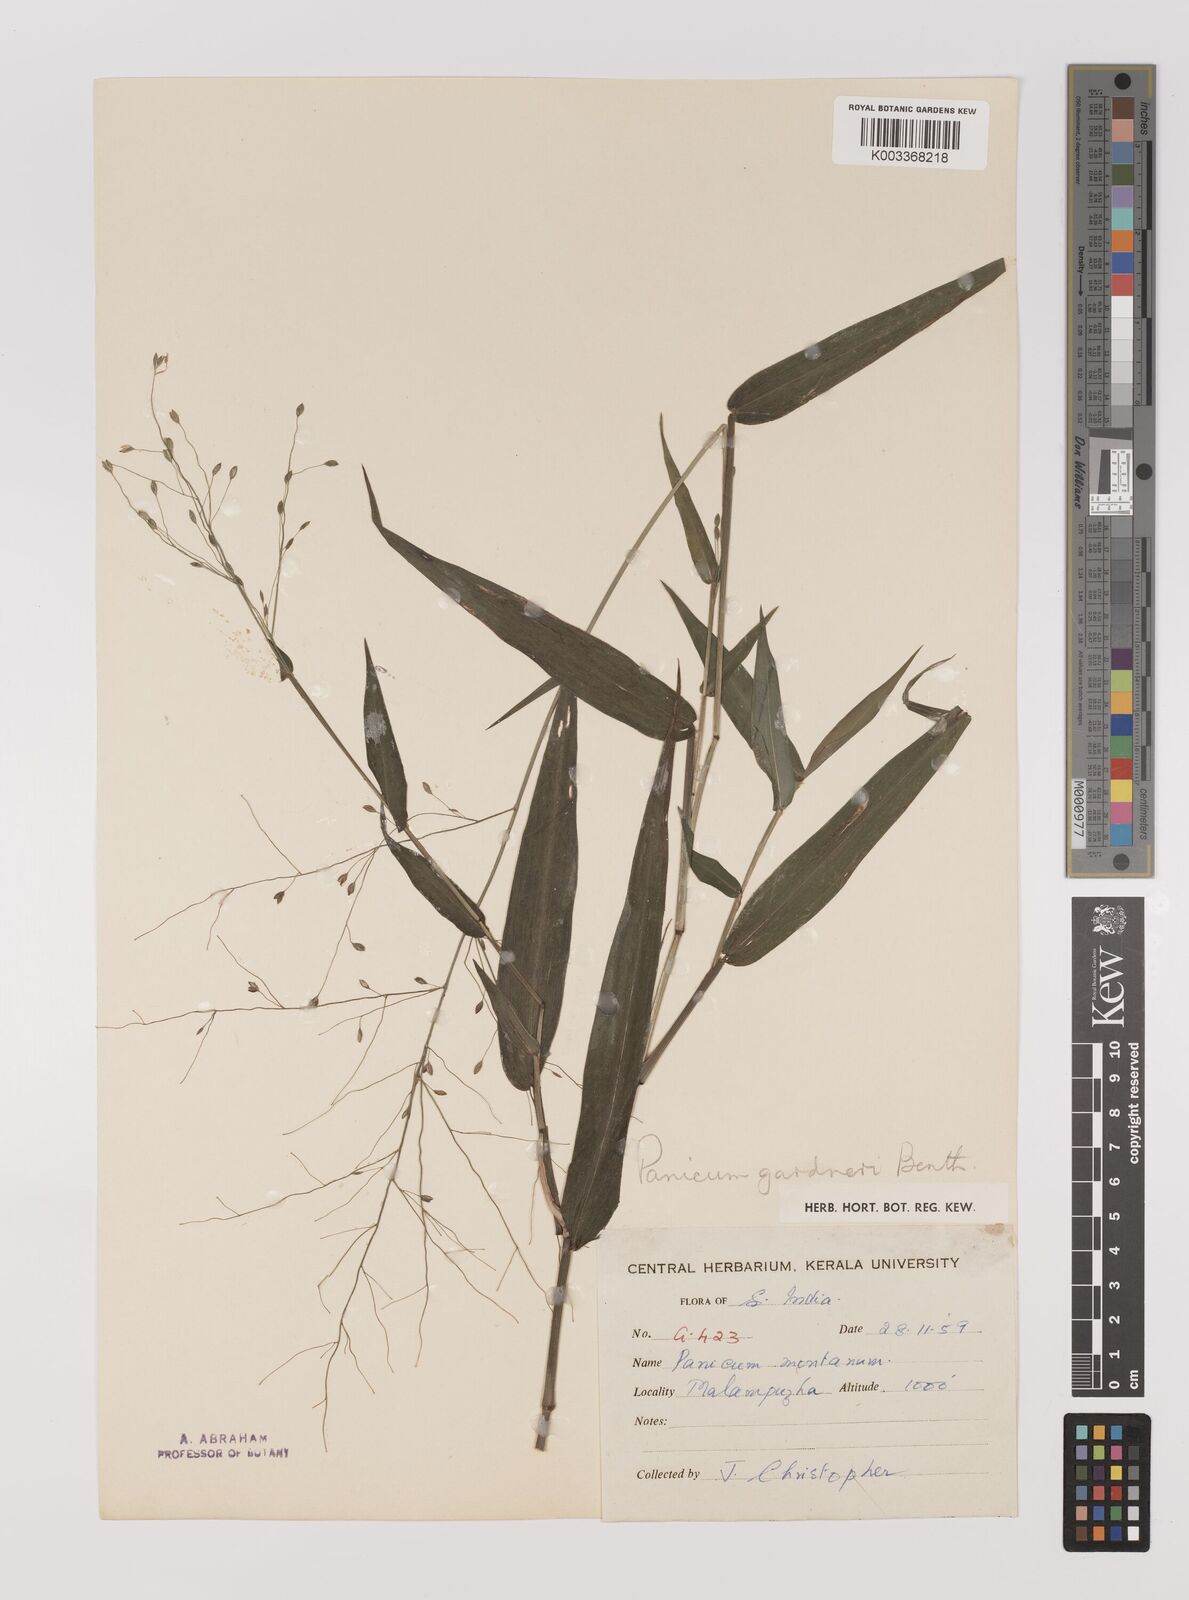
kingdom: Plantae
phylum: Tracheophyta
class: Liliopsida
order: Poales
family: Poaceae
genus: Panicum
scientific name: Panicum gardneri
